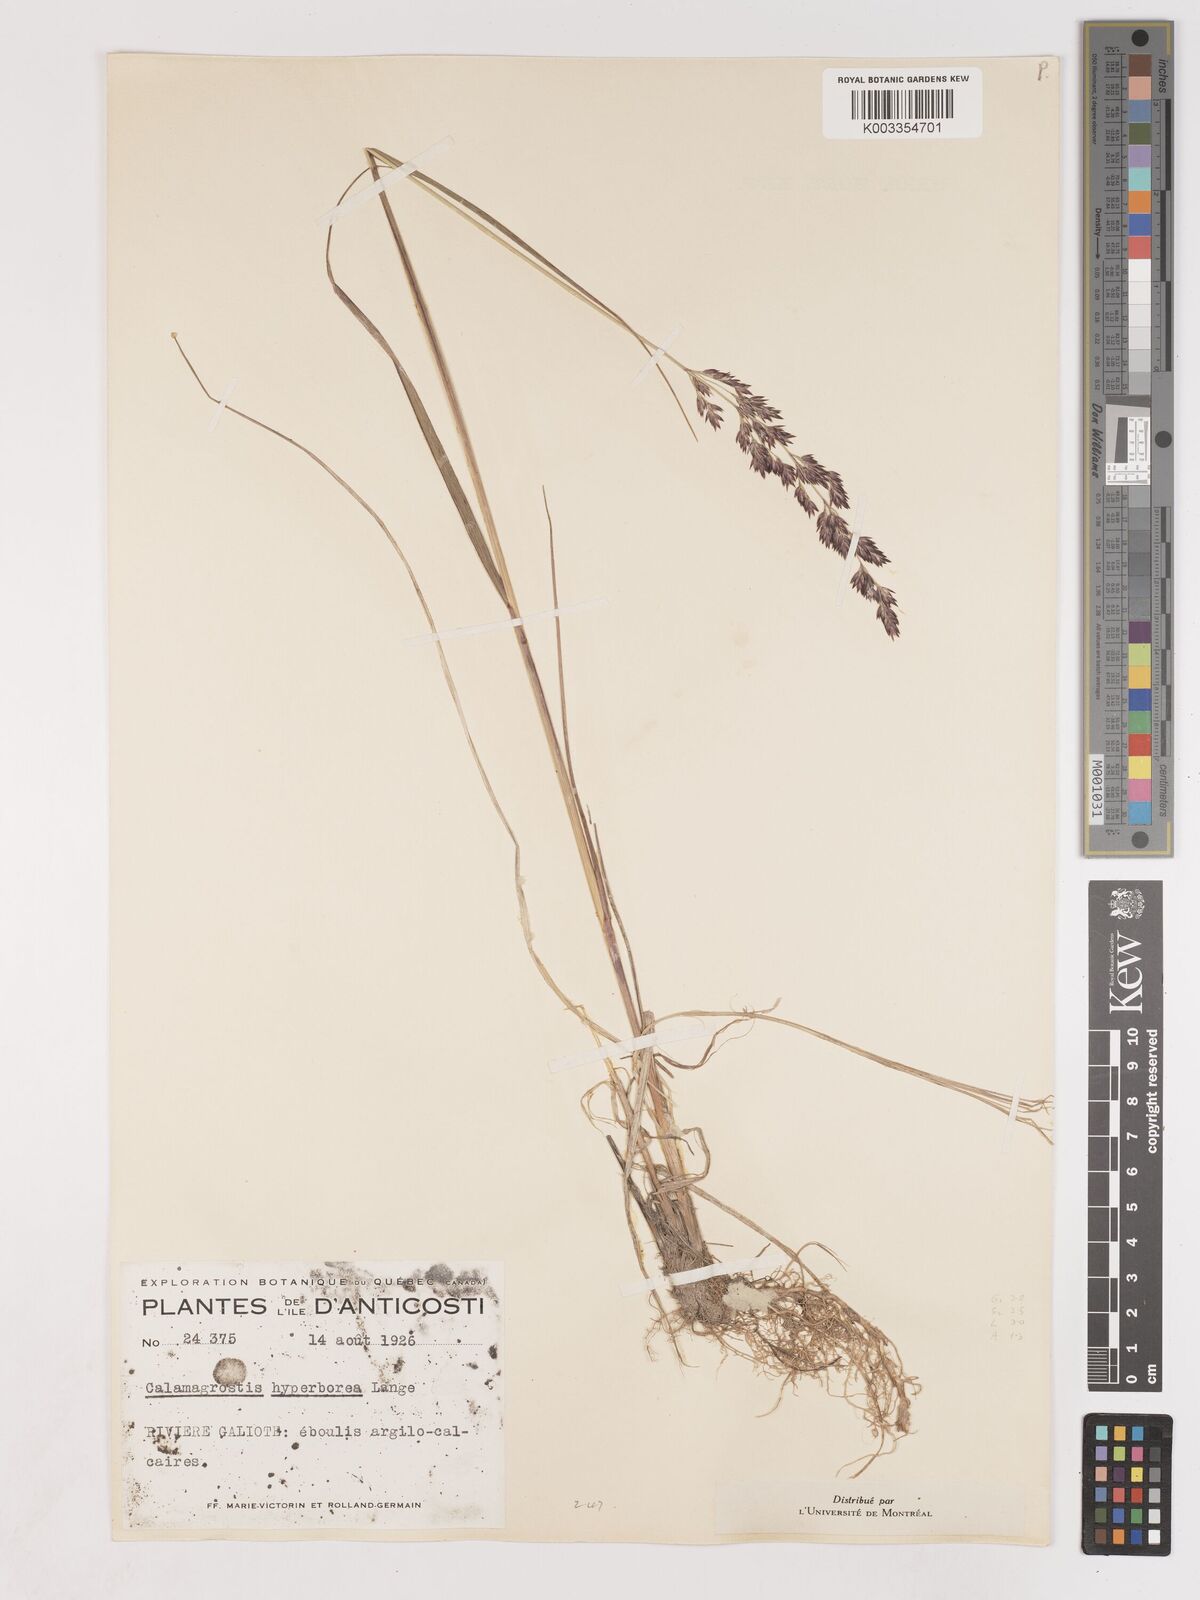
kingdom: Plantae
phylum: Tracheophyta
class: Liliopsida
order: Poales
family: Poaceae
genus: Cinnagrostis
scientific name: Cinnagrostis recta
